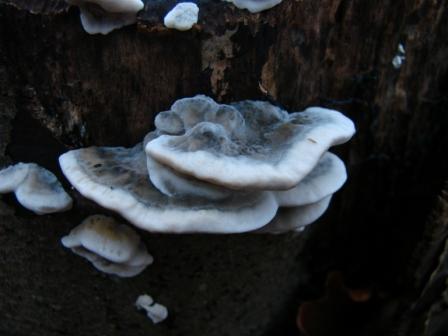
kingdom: Fungi
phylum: Basidiomycota
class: Agaricomycetes
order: Polyporales
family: Phanerochaetaceae
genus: Bjerkandera
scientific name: Bjerkandera adusta
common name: sveden sodporesvamp
